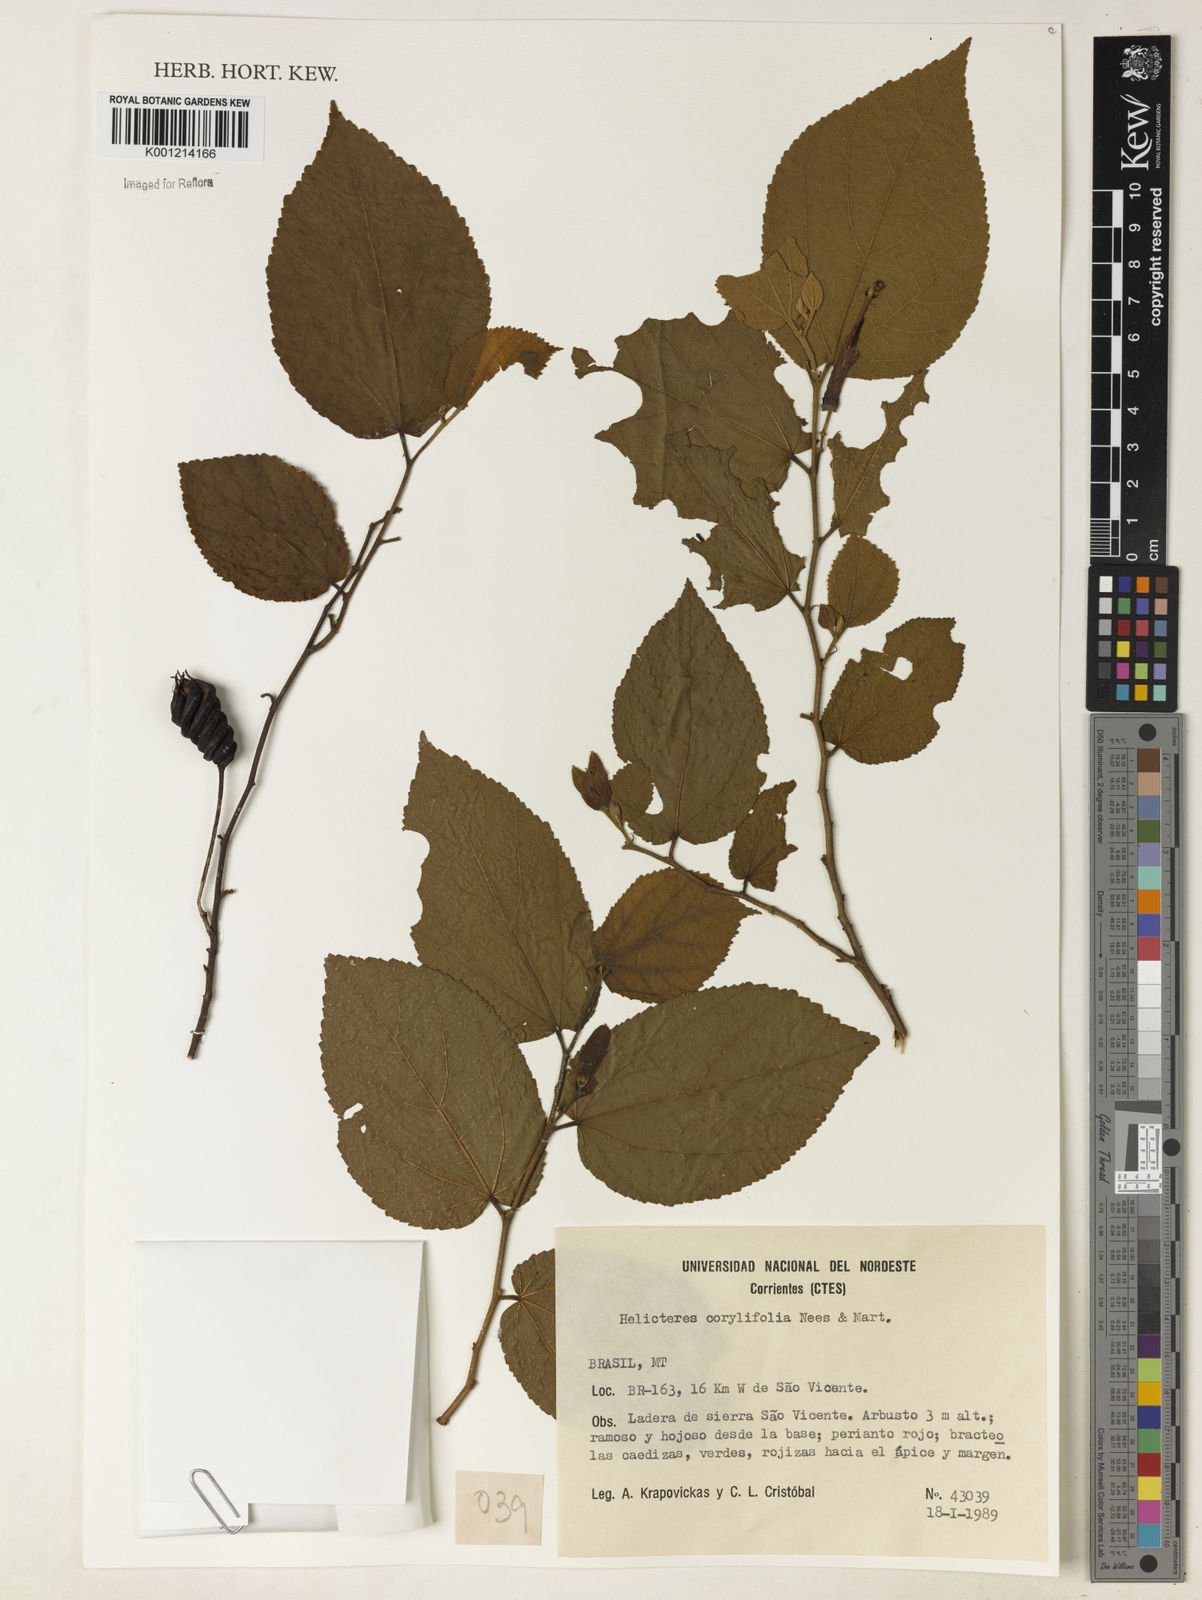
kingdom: Plantae
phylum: Tracheophyta
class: Magnoliopsida
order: Malvales
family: Malvaceae
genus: Helicteres
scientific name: Helicteres corylifolia
